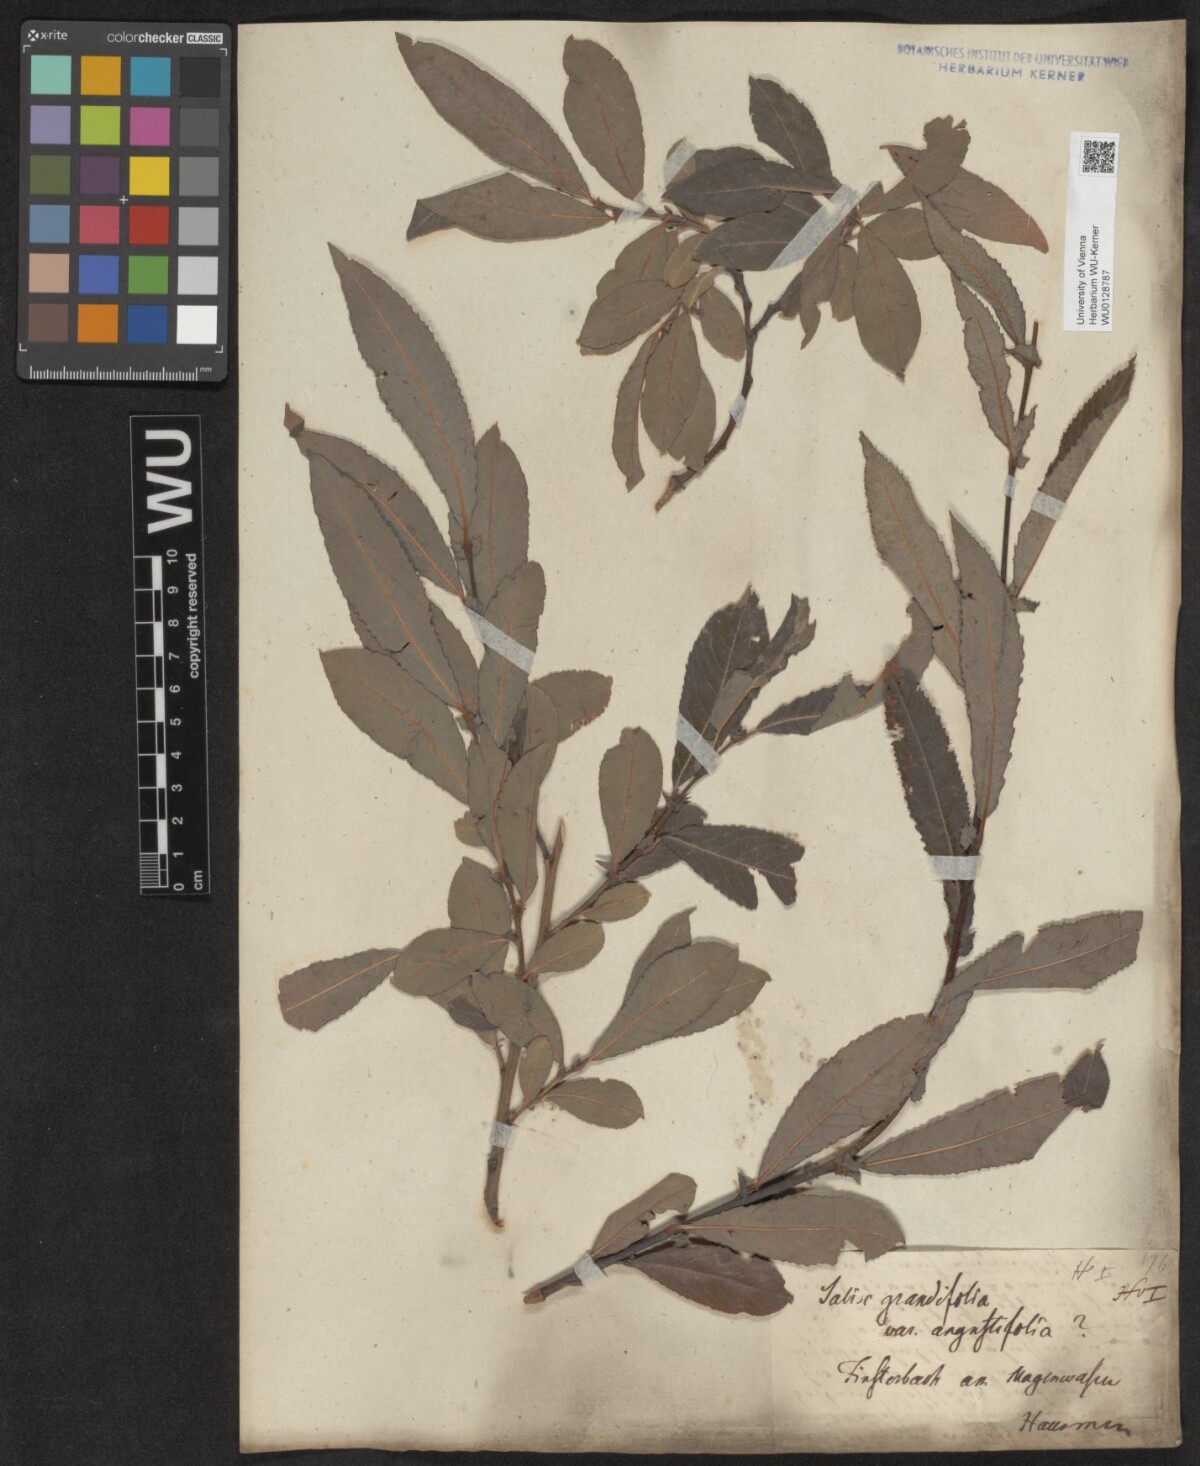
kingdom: Plantae
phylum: Tracheophyta
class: Magnoliopsida
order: Malpighiales
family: Salicaceae
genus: Salix
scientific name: Salix appendiculata
